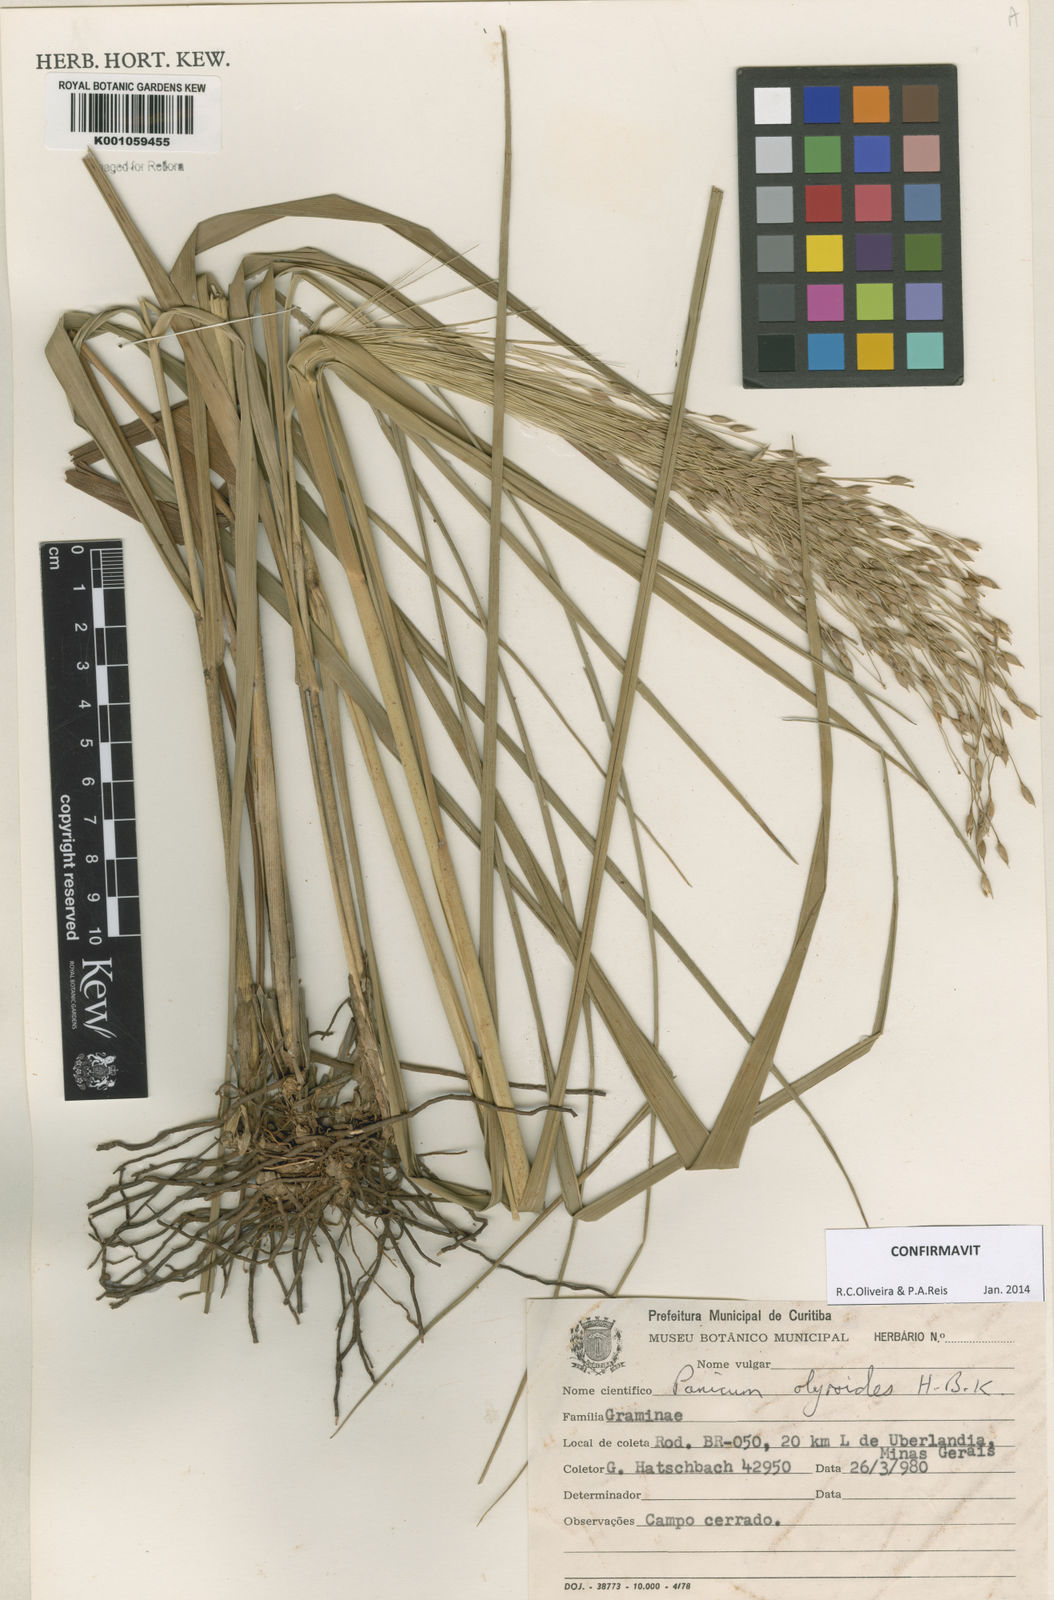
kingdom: Plantae
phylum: Tracheophyta
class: Liliopsida
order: Poales
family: Poaceae
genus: Panicum
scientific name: Panicum olyroides
